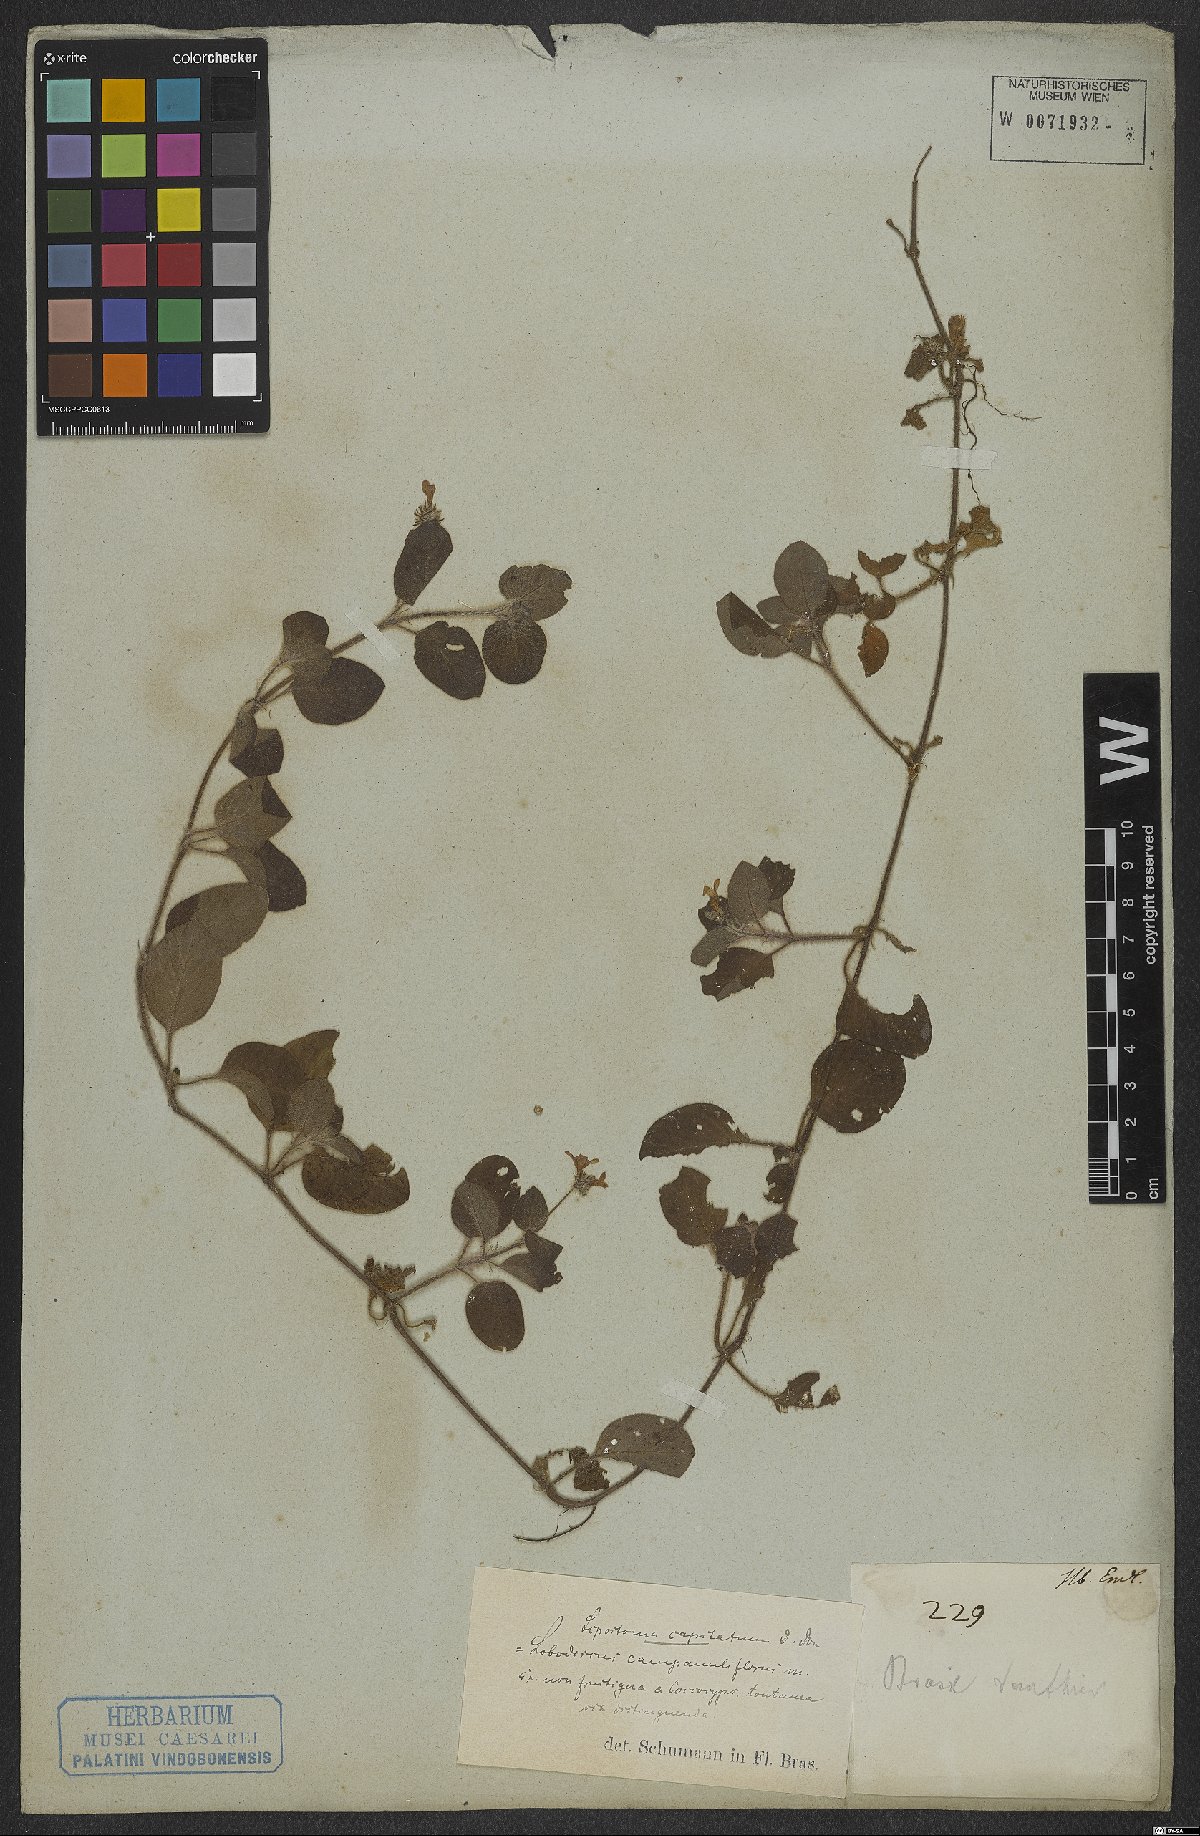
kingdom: Plantae
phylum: Tracheophyta
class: Magnoliopsida
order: Gentianales
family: Rubiaceae
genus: Coccocypselum
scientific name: Coccocypselum capitatum
